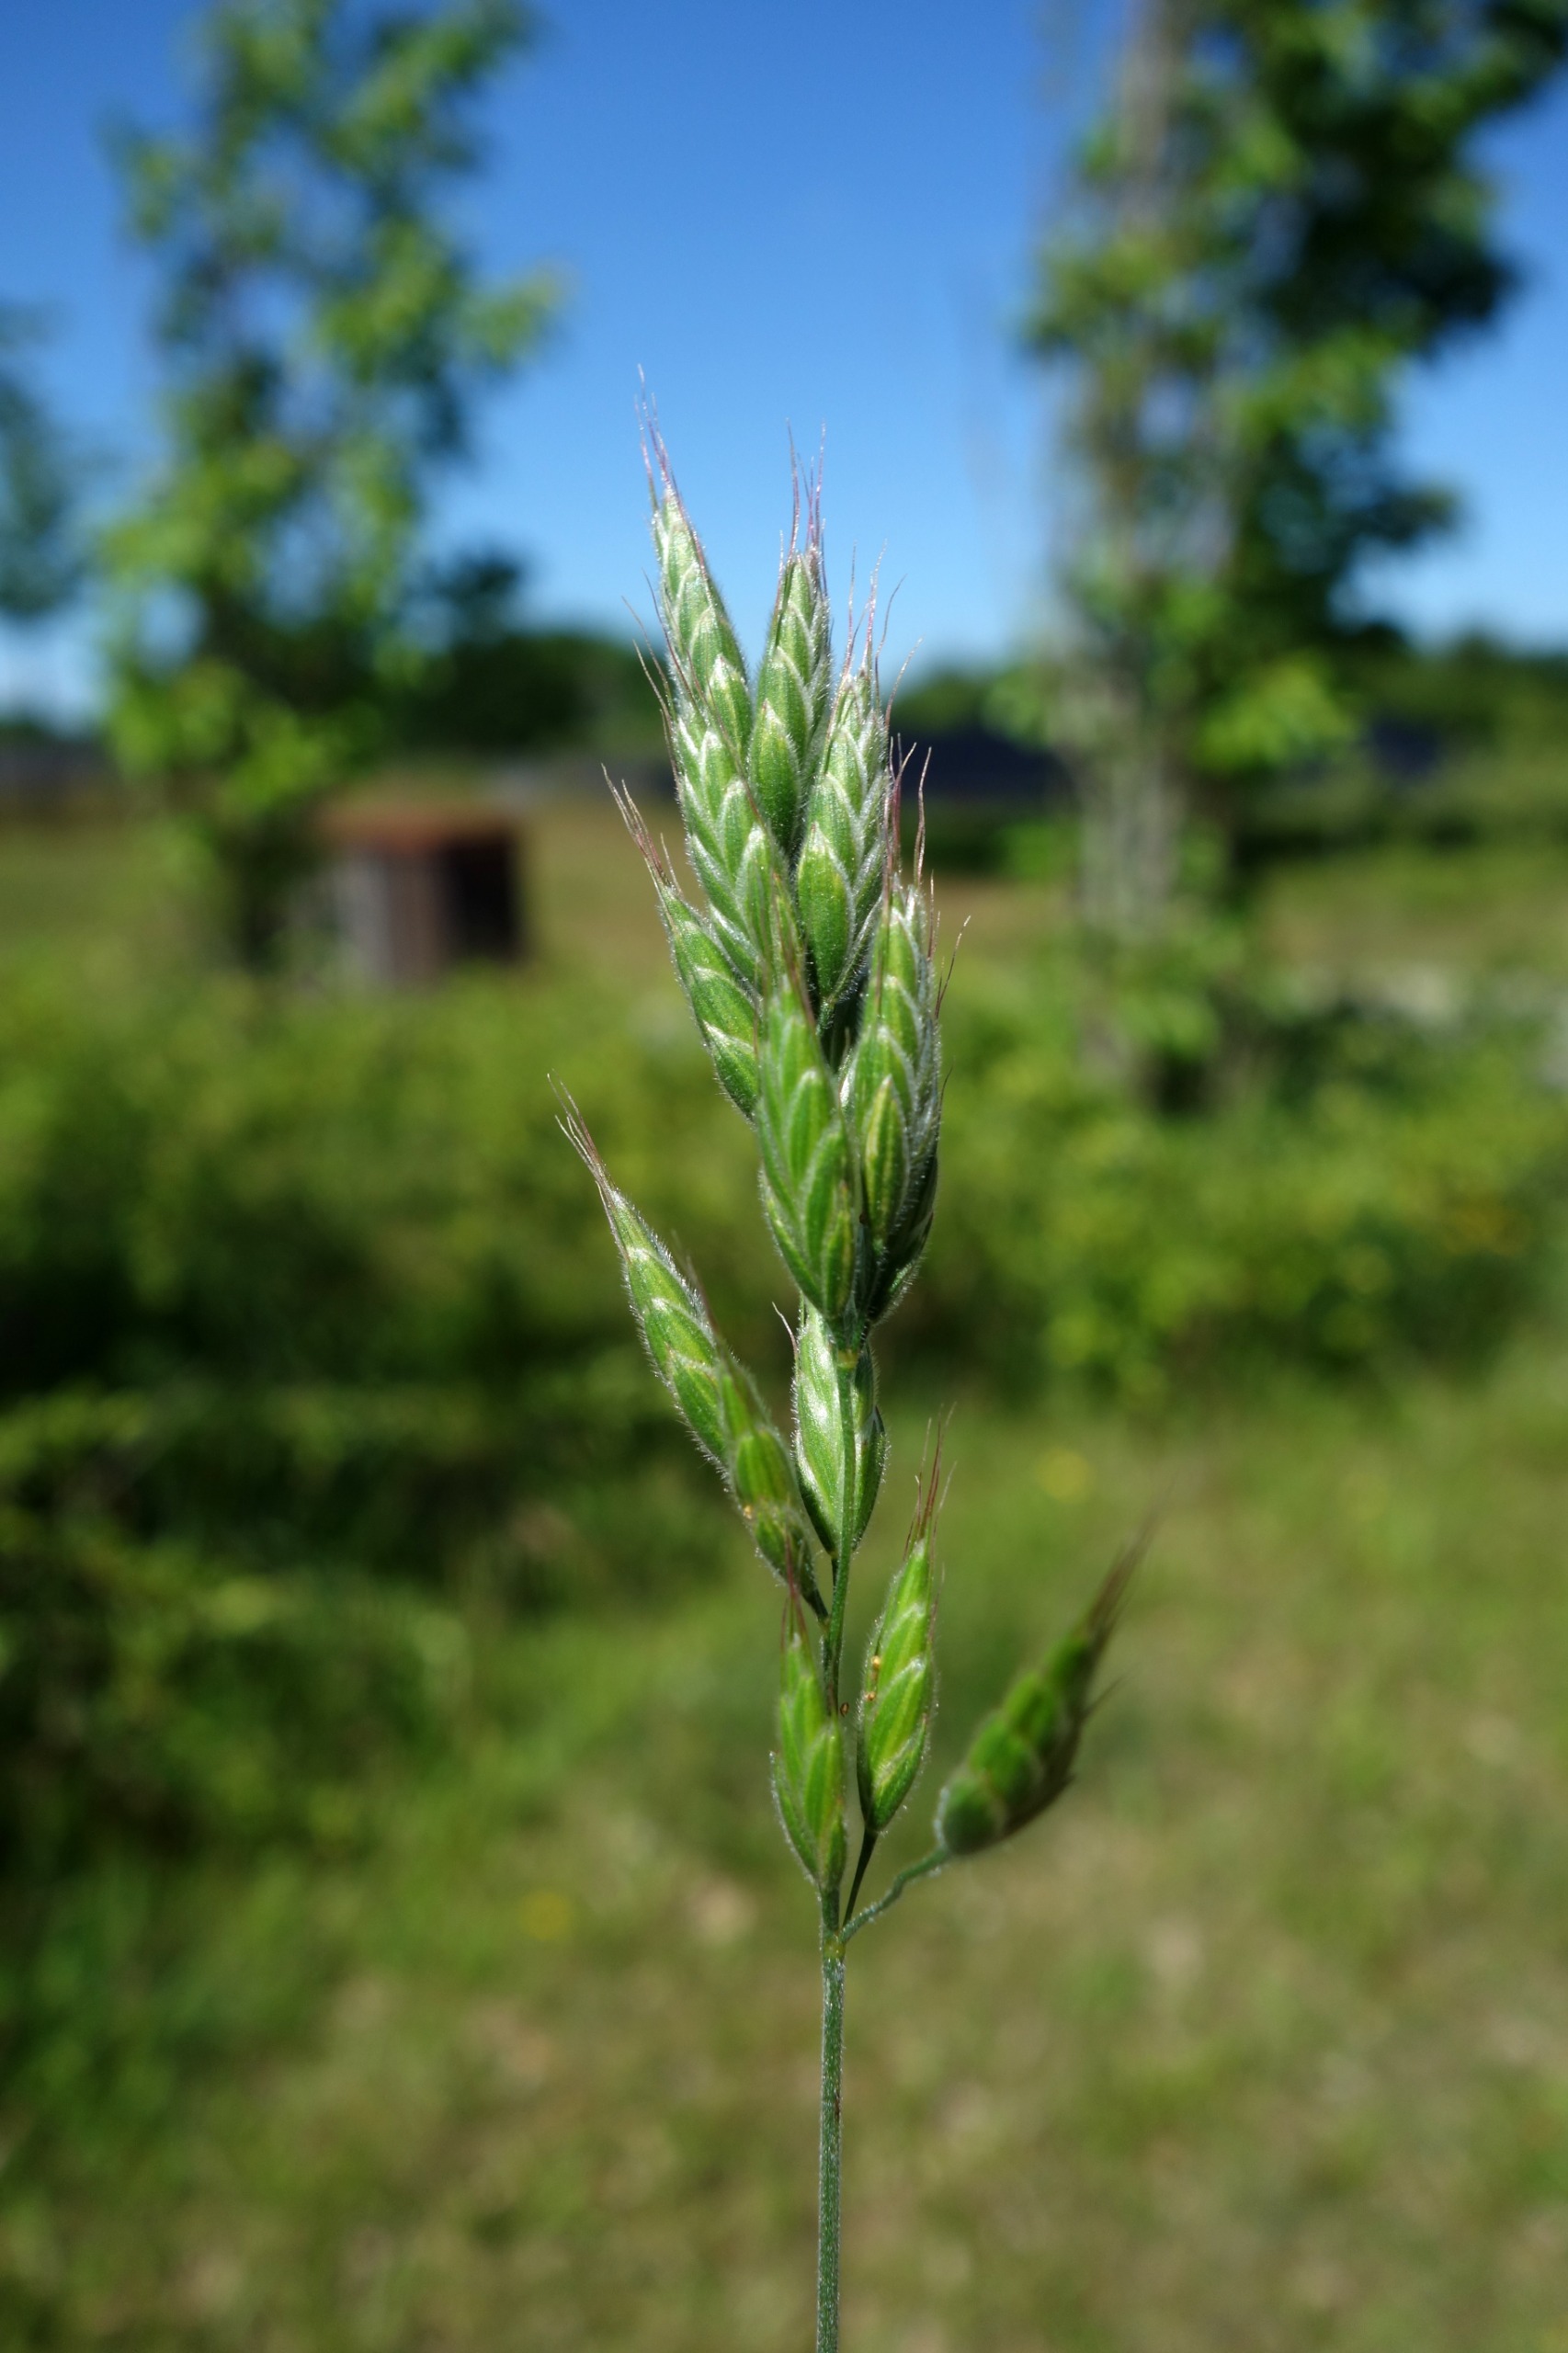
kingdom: Plantae
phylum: Tracheophyta
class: Liliopsida
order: Poales
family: Poaceae
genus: Bromus
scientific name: Bromus hordeaceus
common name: Blød hejre
